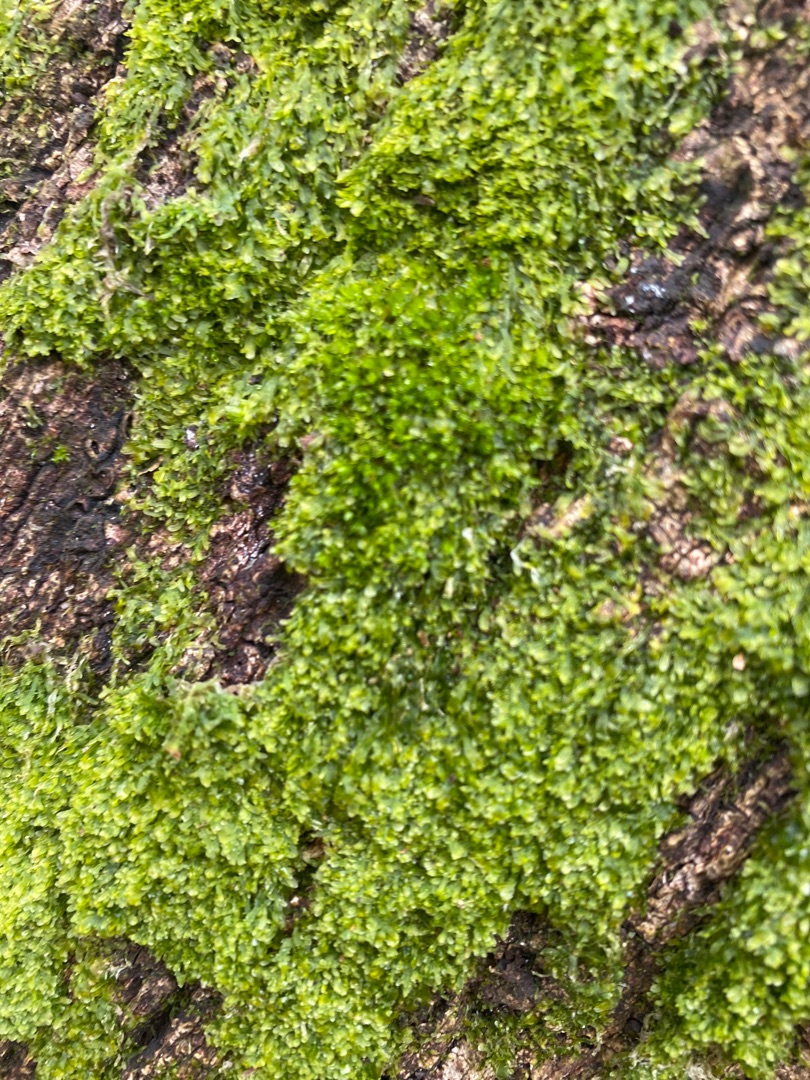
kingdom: Plantae
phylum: Marchantiophyta
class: Jungermanniopsida
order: Metzgeriales
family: Metzgeriaceae
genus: Metzgeria
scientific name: Metzgeria furcata
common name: Almindelig gaffelløv
